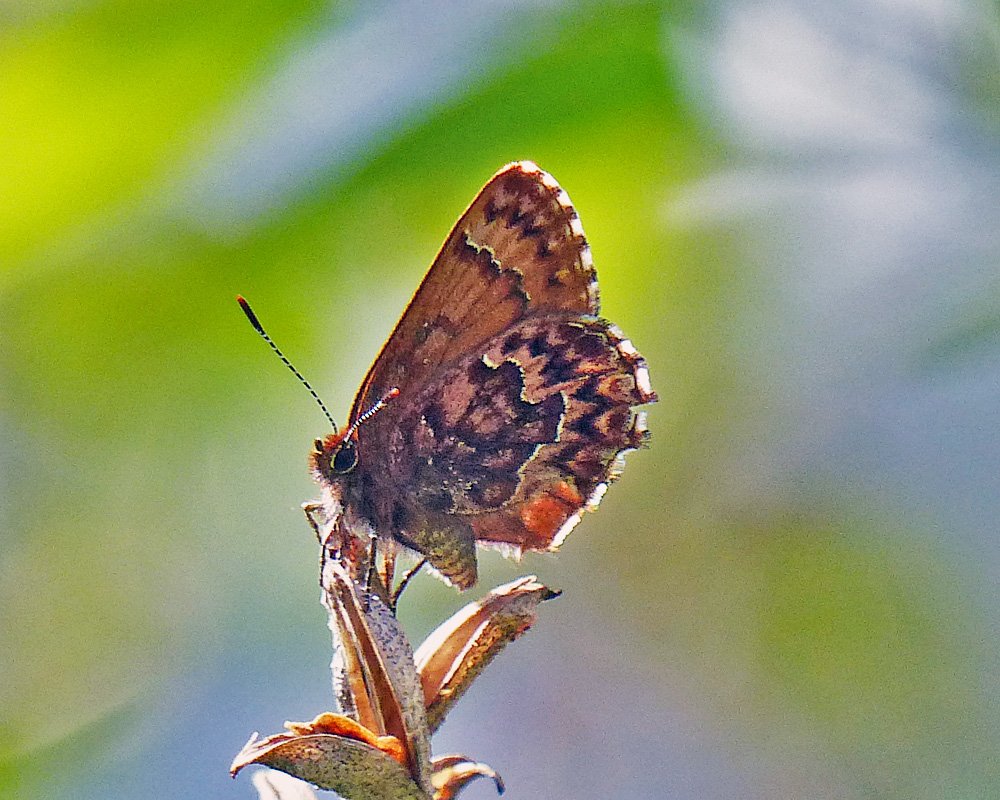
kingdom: Animalia
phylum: Arthropoda
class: Insecta
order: Lepidoptera
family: Lycaenidae
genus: Incisalia
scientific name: Incisalia eryphon
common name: Western Pine Elfin
